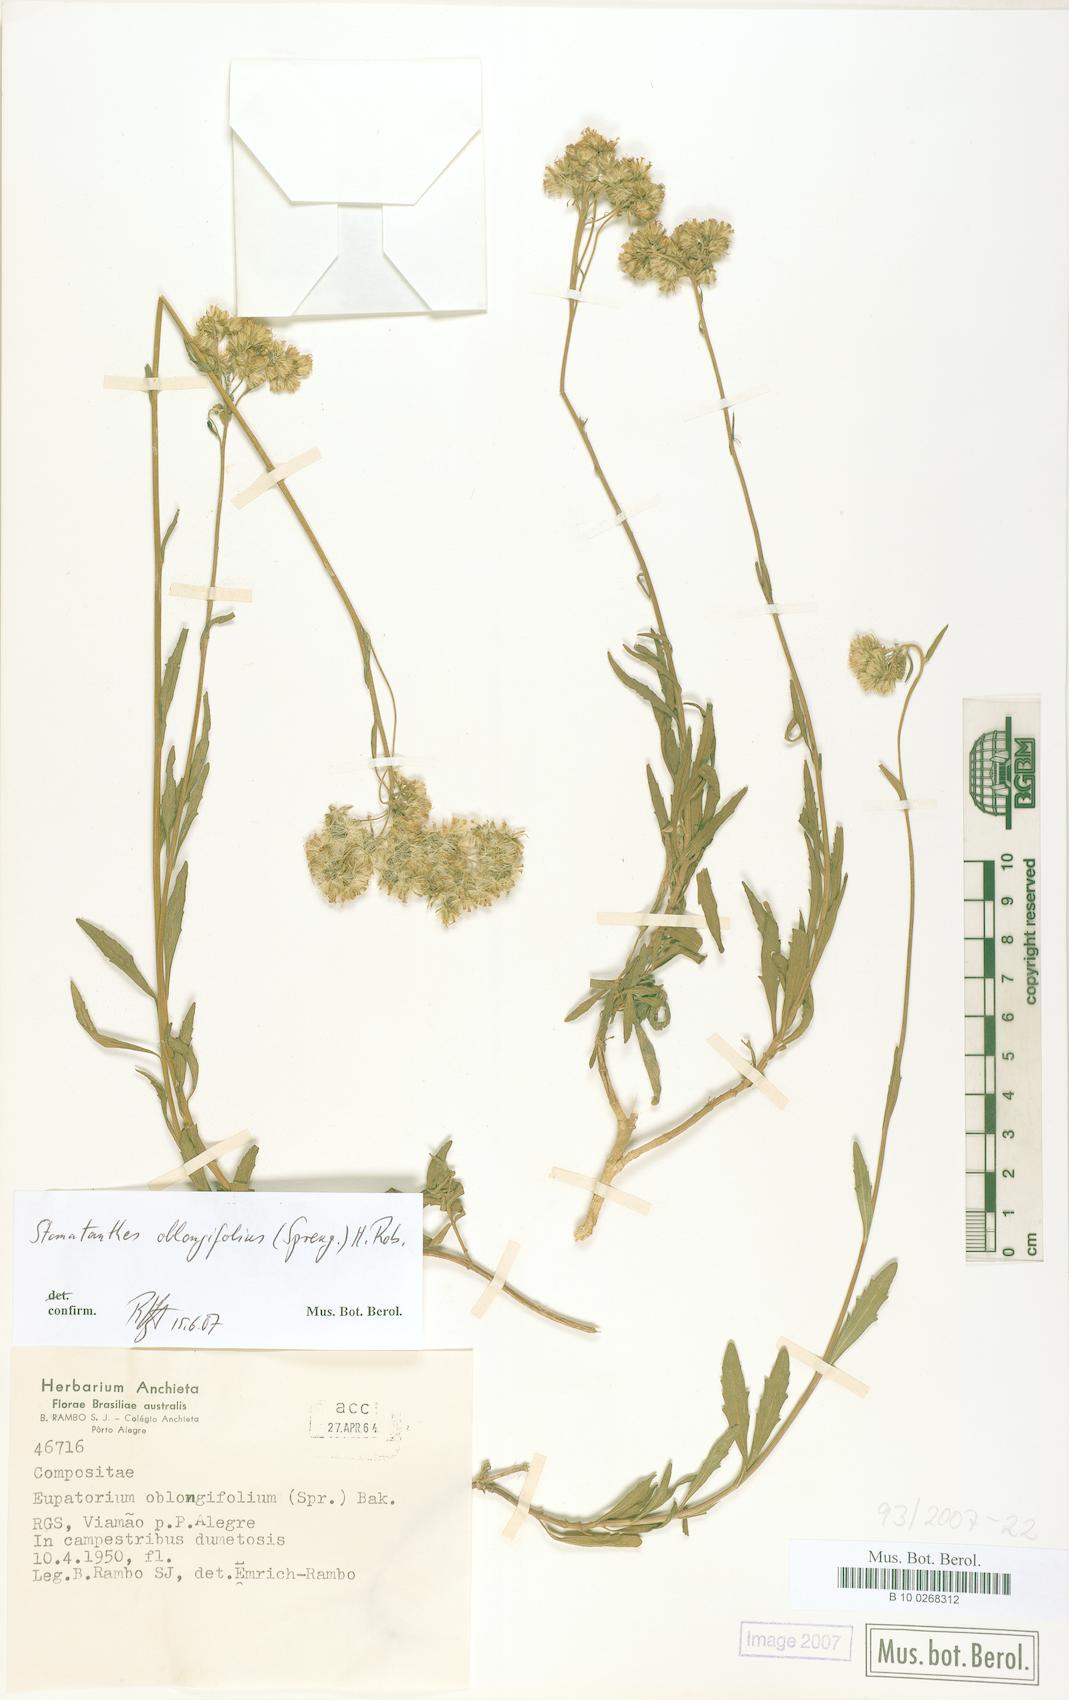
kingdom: Plantae
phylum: Tracheophyta
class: Magnoliopsida
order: Asterales
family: Asteraceae
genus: Stomatanthes
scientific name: Stomatanthes oblongifolius
